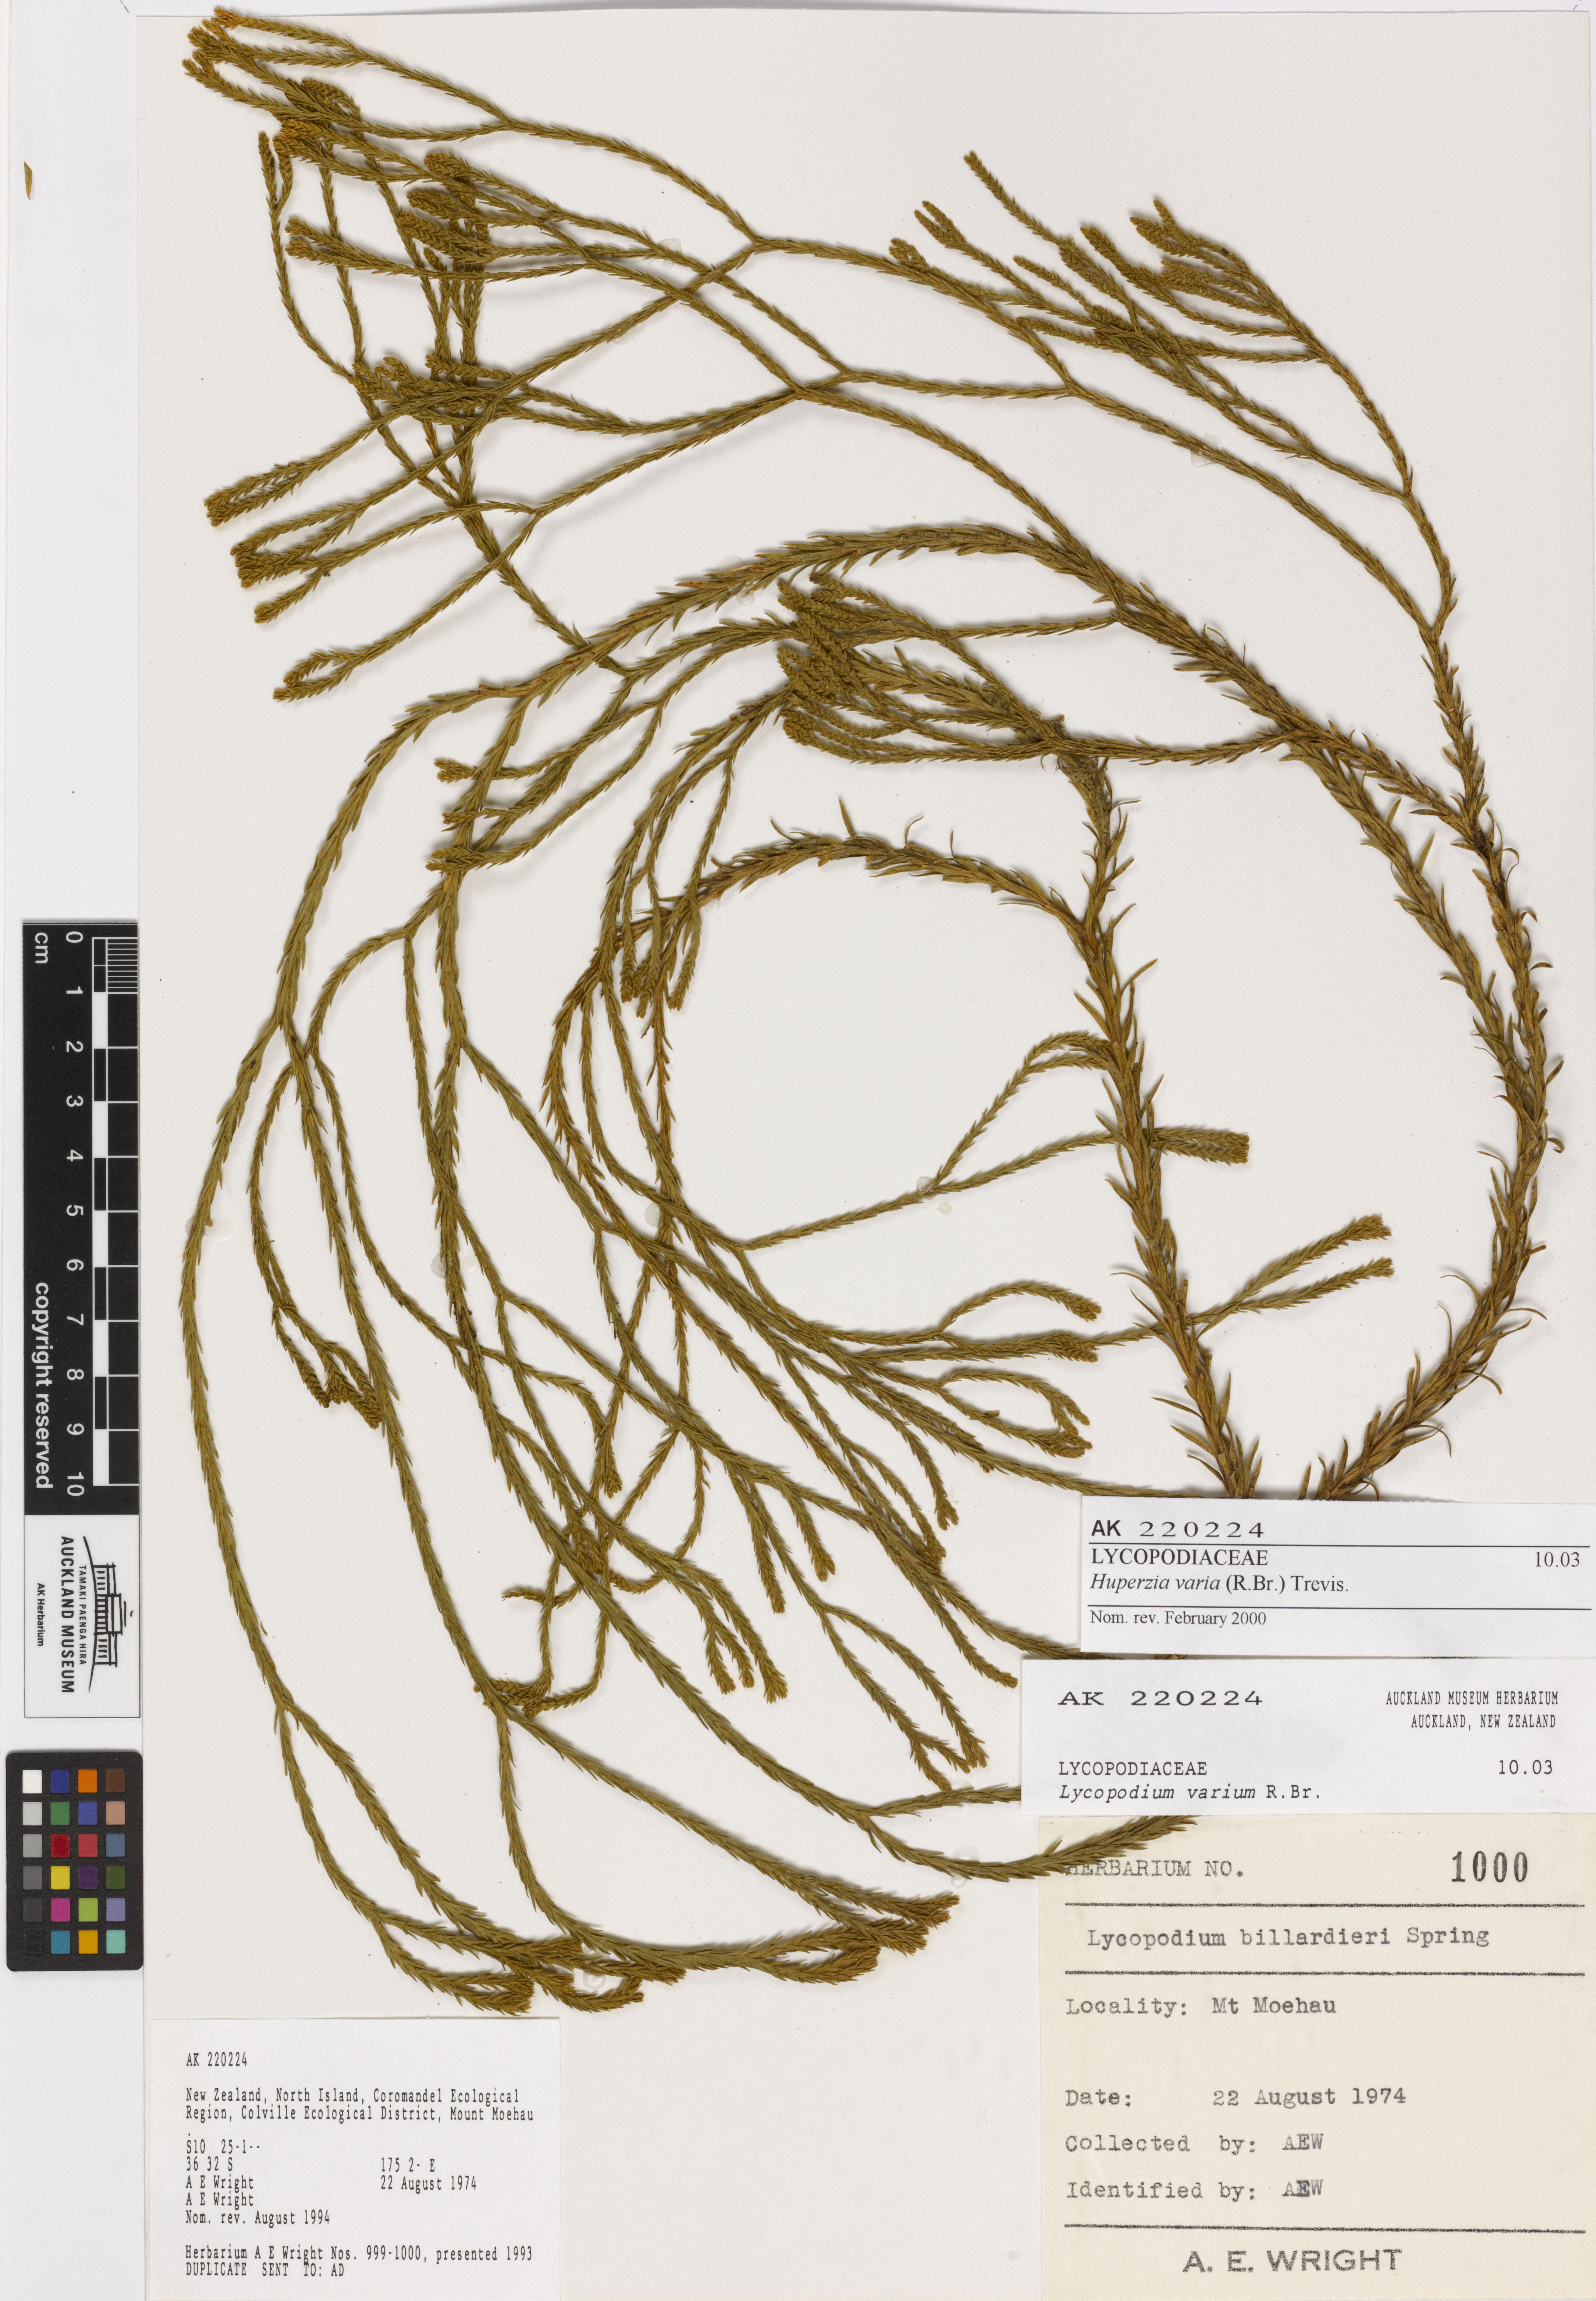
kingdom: Plantae
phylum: Tracheophyta
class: Lycopodiopsida
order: Lycopodiales
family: Lycopodiaceae
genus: Phlegmariurus
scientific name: Phlegmariurus billardierei
